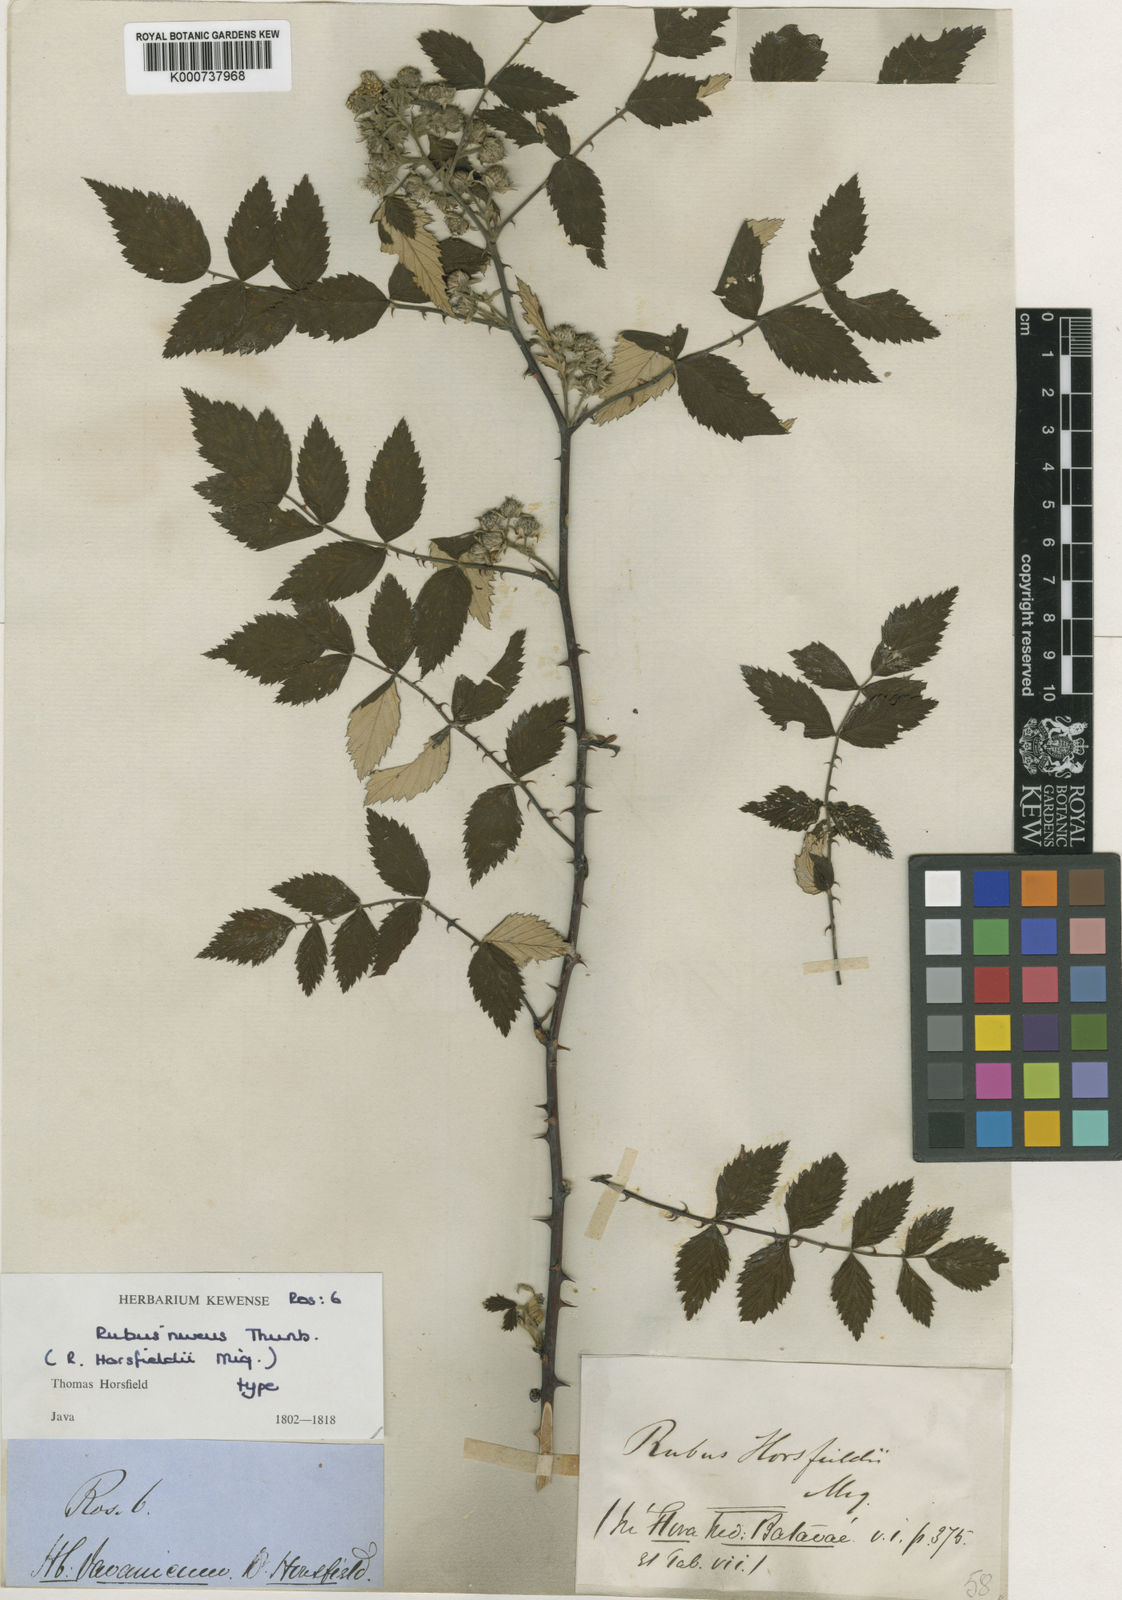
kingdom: Plantae
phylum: Tracheophyta
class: Magnoliopsida
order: Rosales
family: Rosaceae
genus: Rubus
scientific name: Rubus niveus
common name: Snowpeaks raspberry
